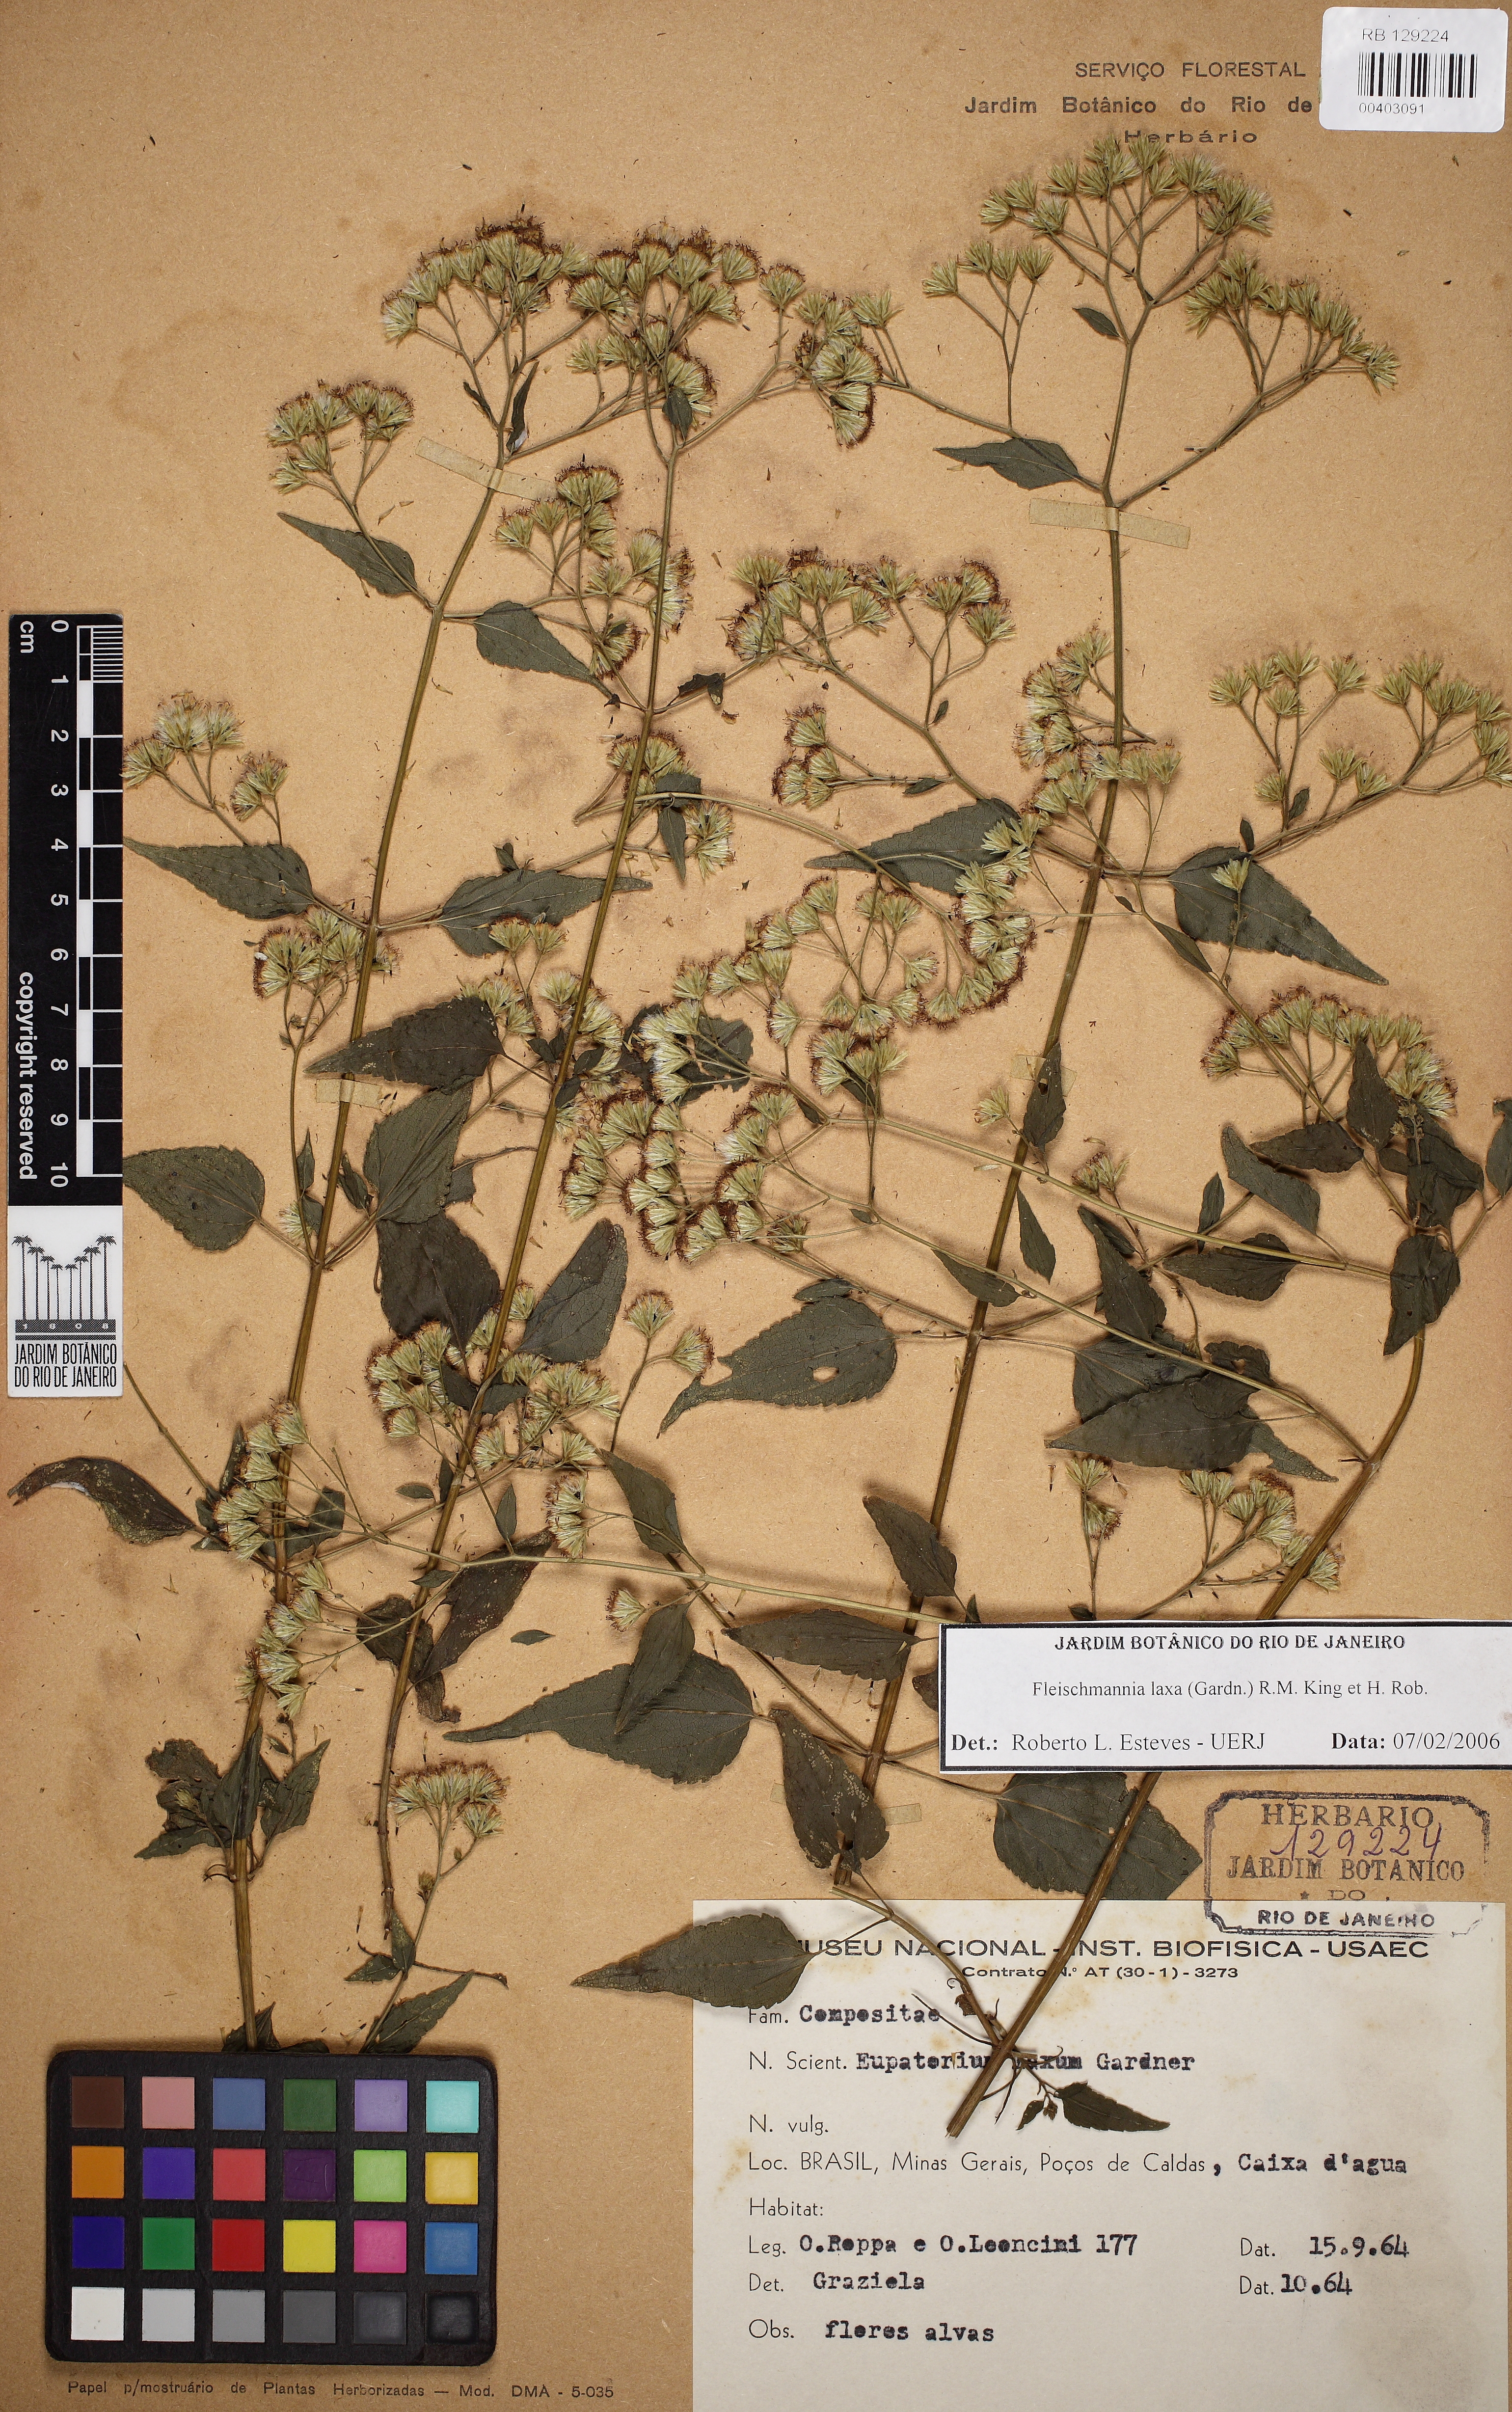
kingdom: Plantae
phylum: Tracheophyta
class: Magnoliopsida
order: Asterales
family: Asteraceae
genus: Fleischmannia
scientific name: Fleischmannia laxa
